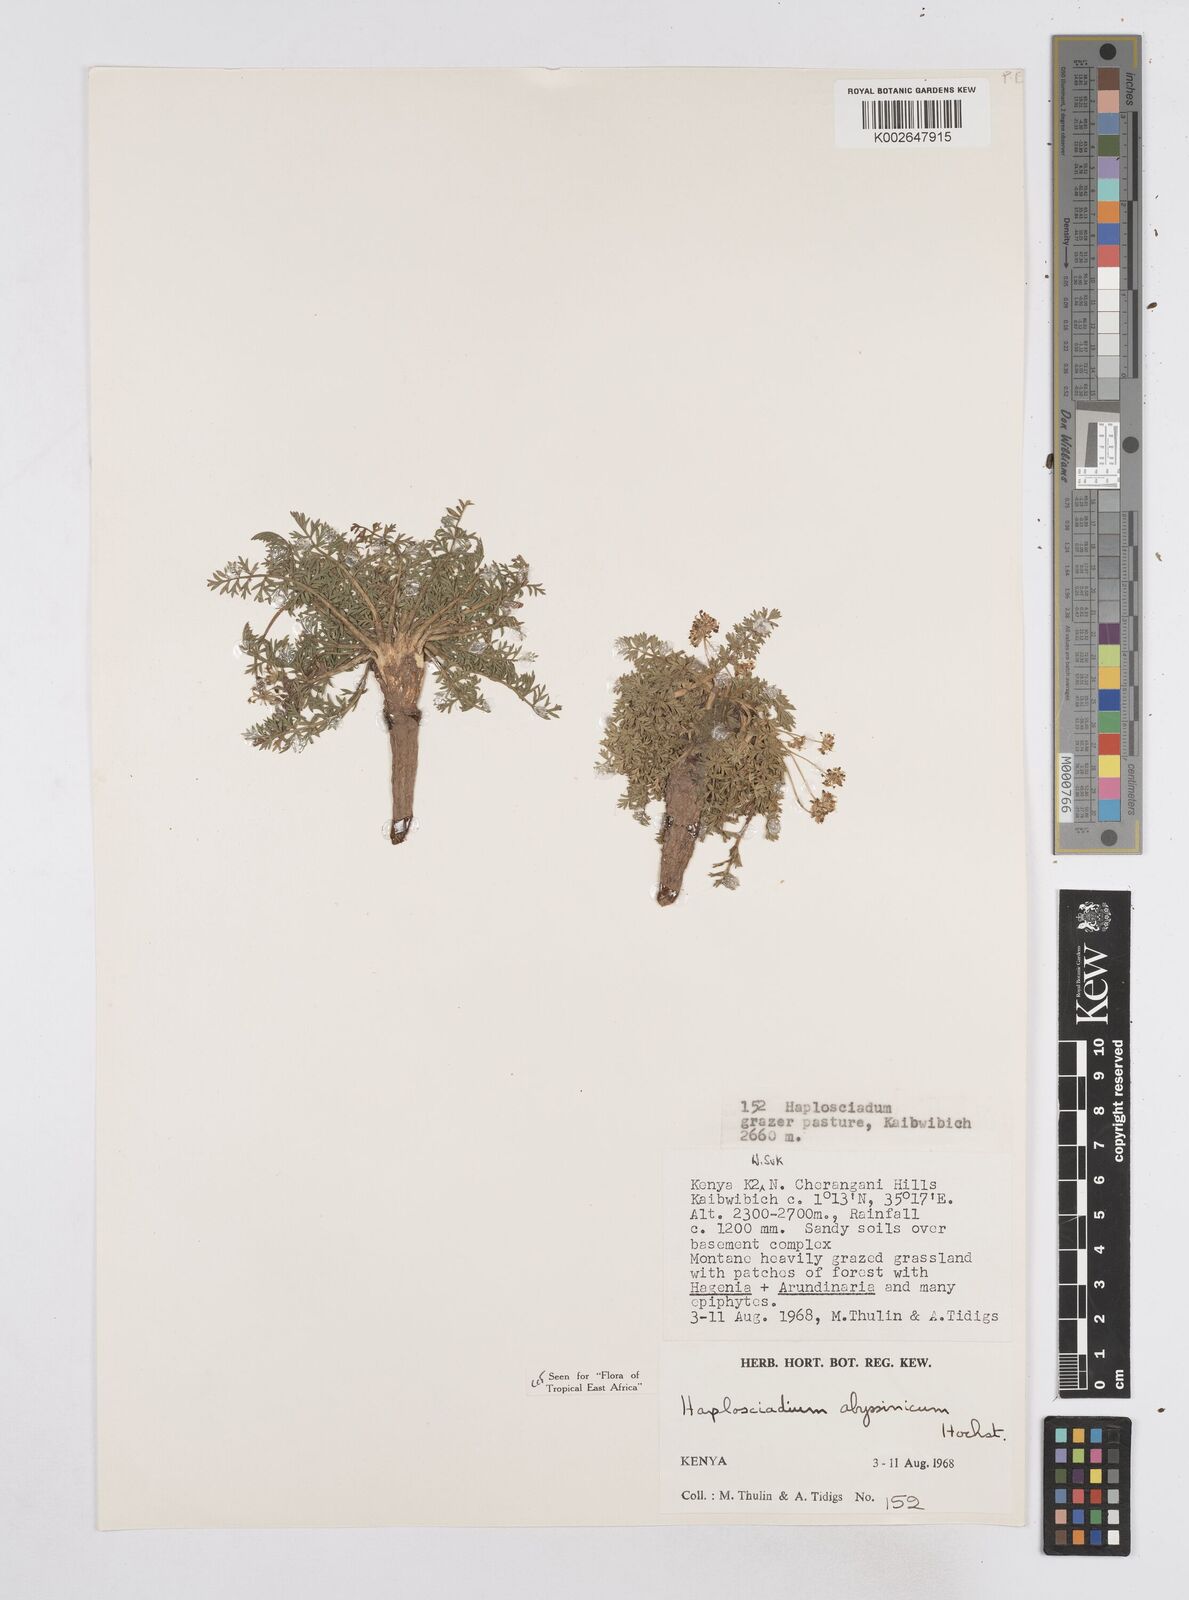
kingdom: Plantae
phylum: Tracheophyta
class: Magnoliopsida
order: Apiales
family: Apiaceae
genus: Haplosciadium
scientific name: Haplosciadium abyssinicum
